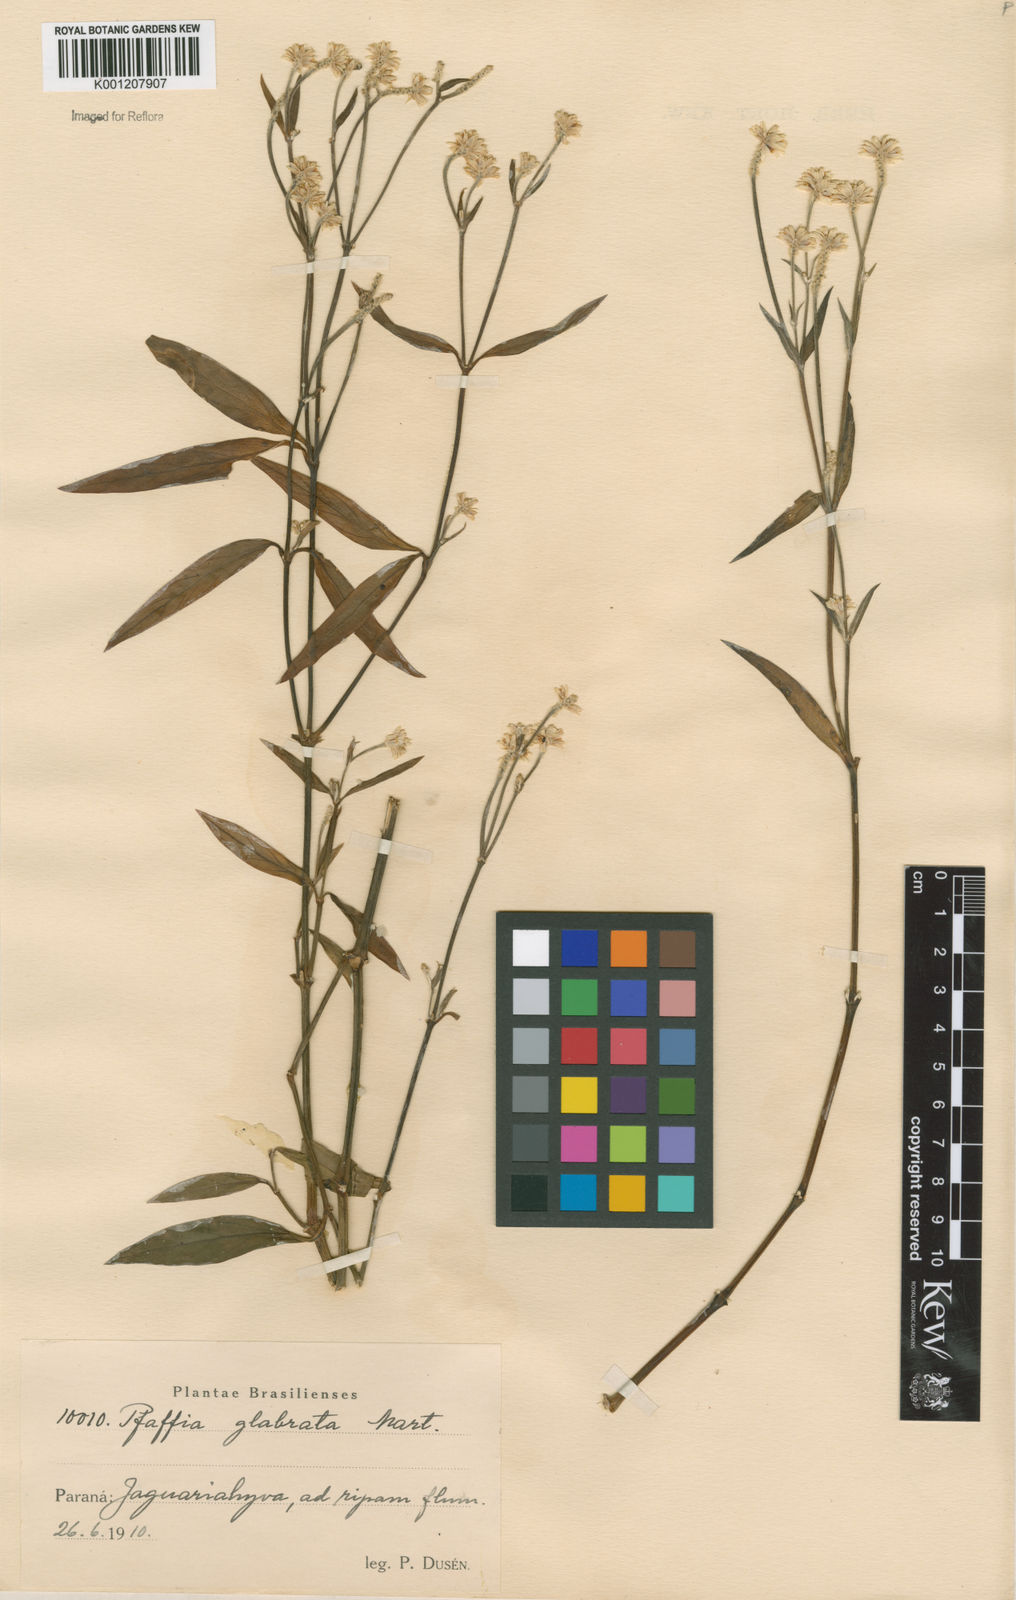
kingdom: Plantae
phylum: Tracheophyta
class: Magnoliopsida
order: Caryophyllales
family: Amaranthaceae
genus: Pfaffia
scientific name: Pfaffia glabrata
